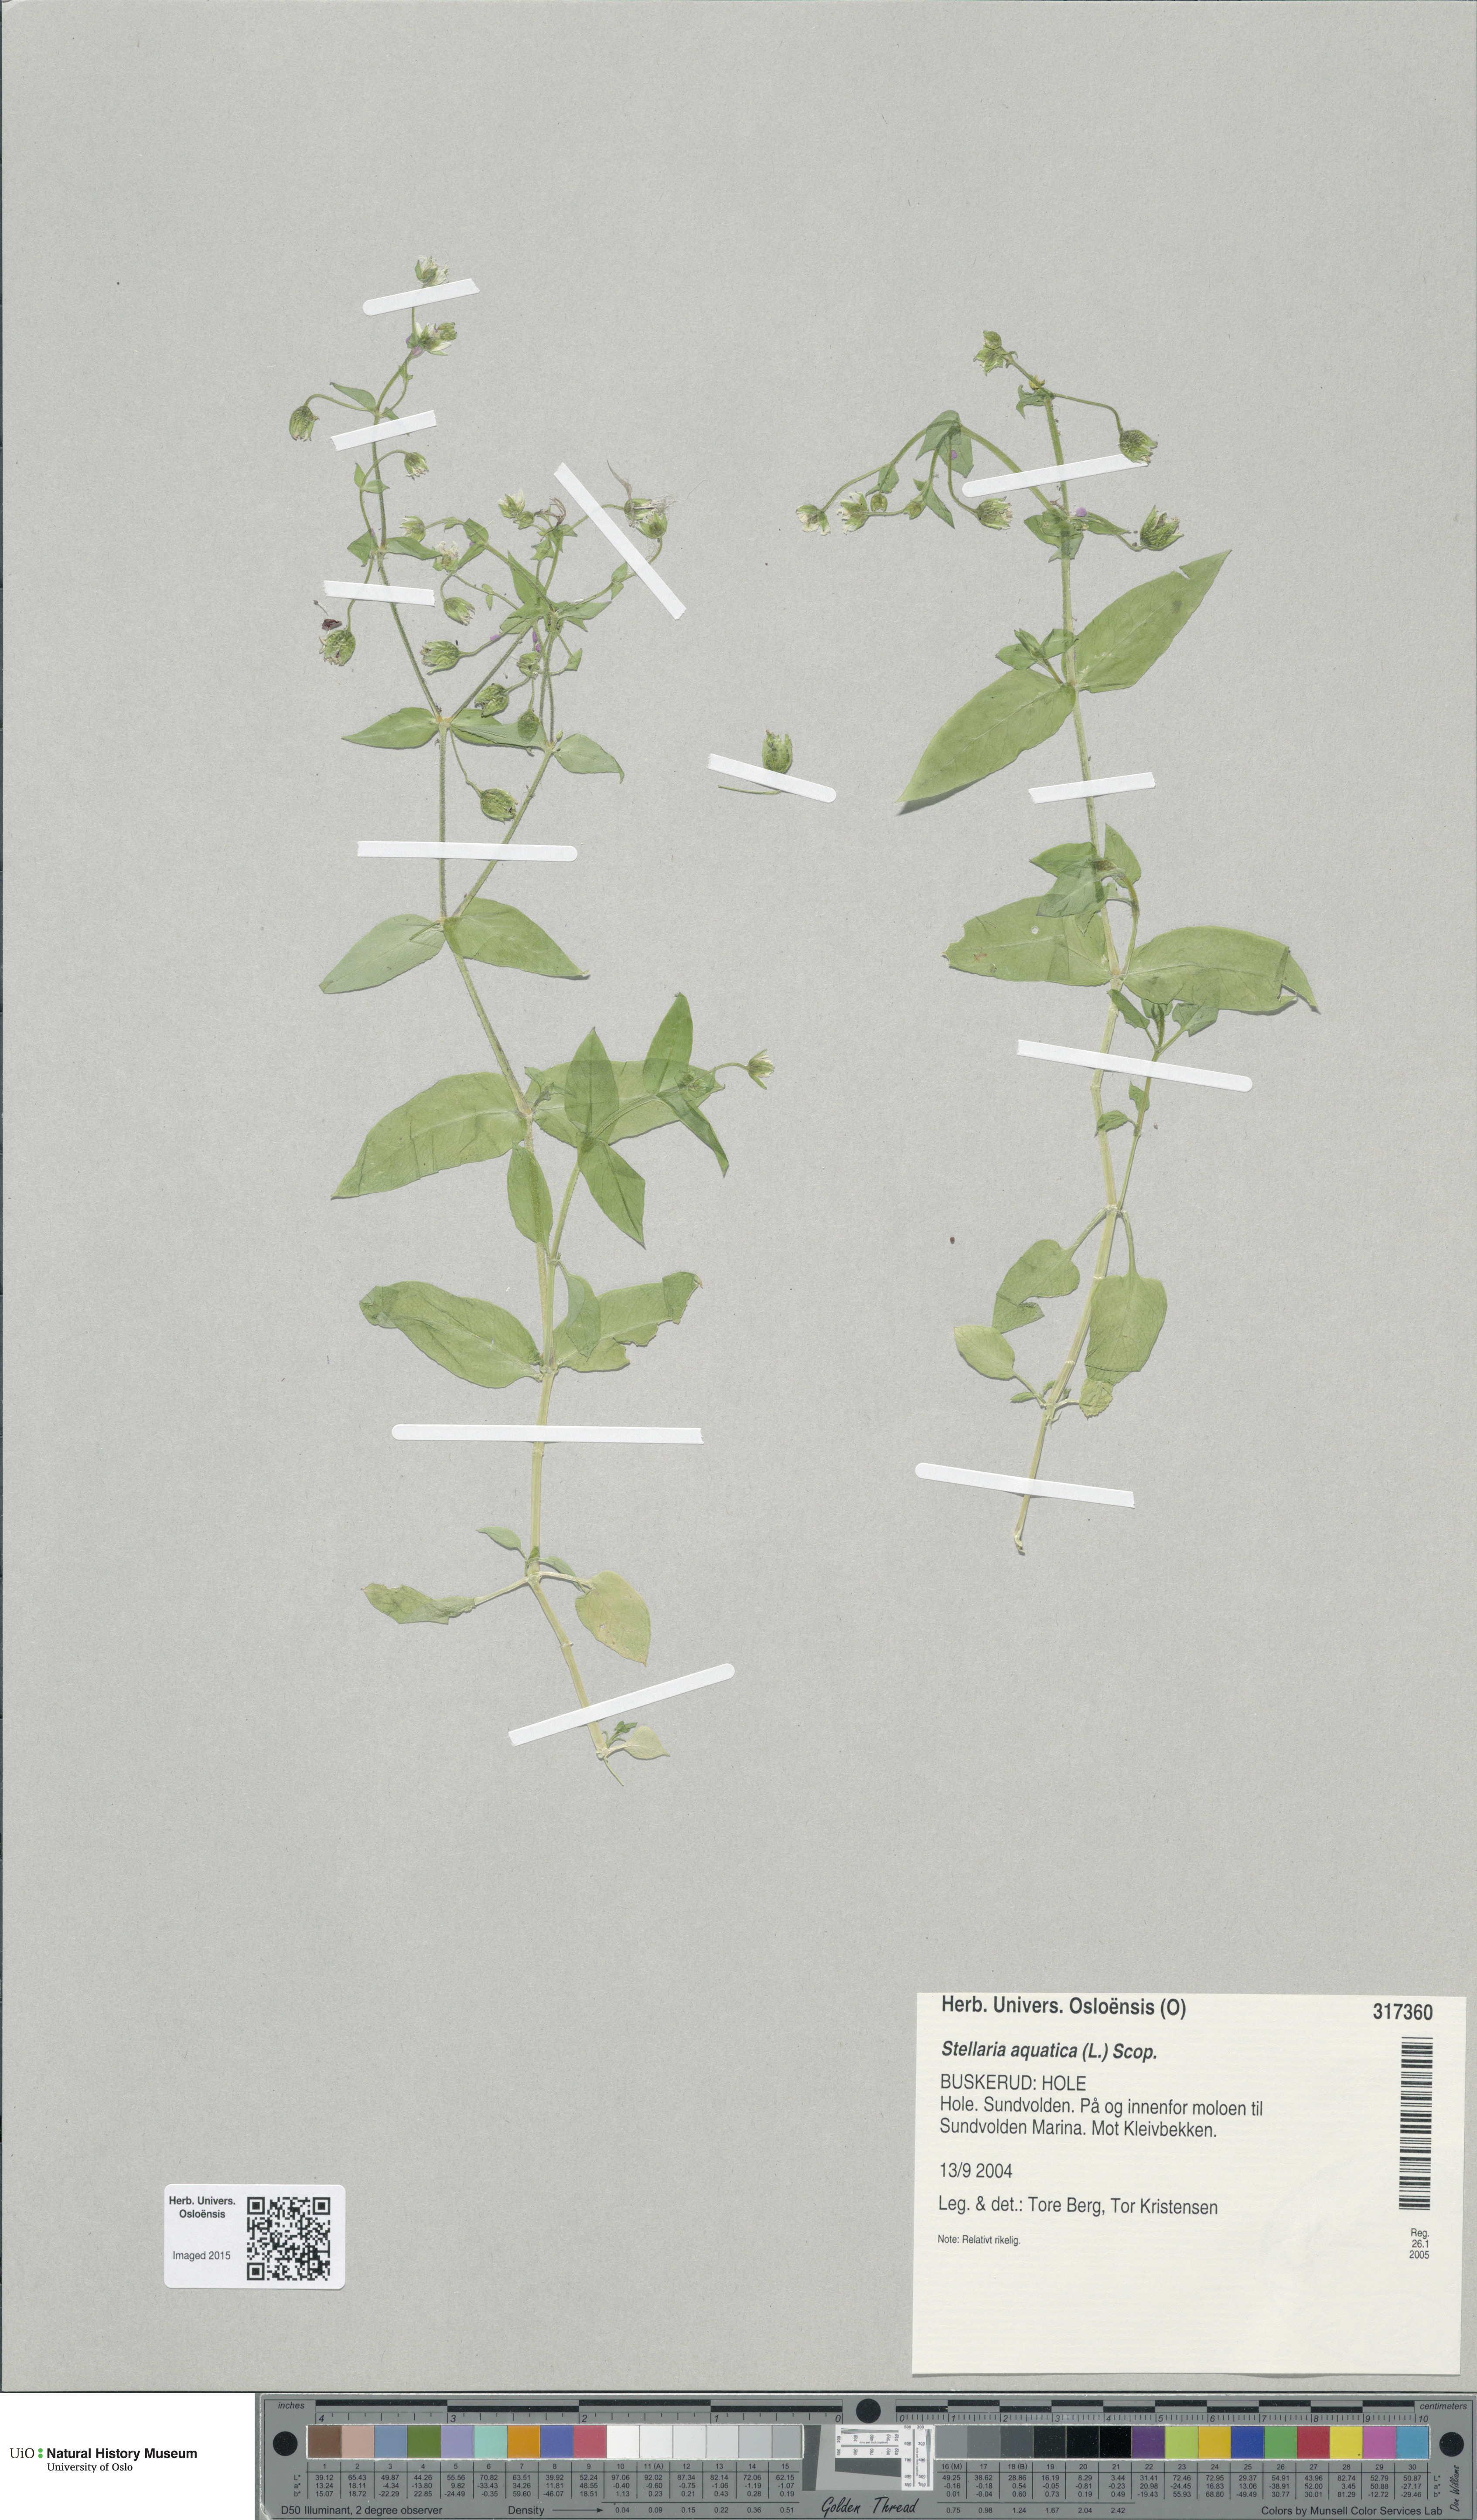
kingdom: Plantae
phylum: Tracheophyta
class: Magnoliopsida
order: Caryophyllales
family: Caryophyllaceae
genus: Stellaria
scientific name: Stellaria aquatica
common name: Water chickweed
